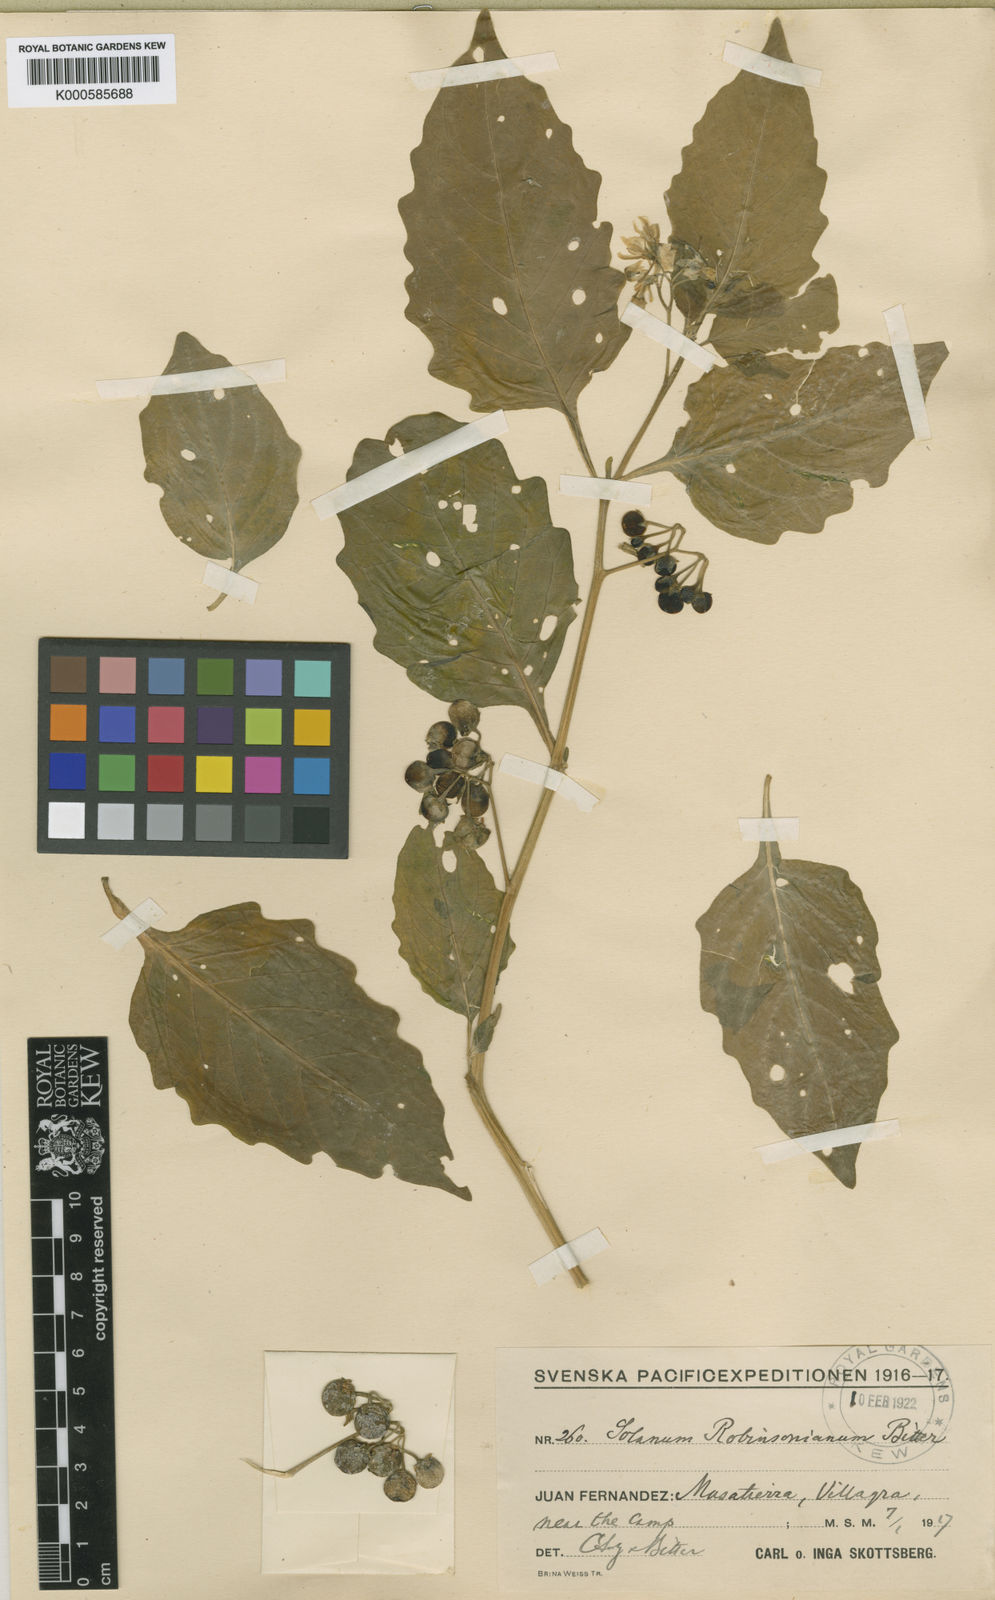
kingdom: Plantae
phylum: Tracheophyta
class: Magnoliopsida
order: Solanales
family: Solanaceae
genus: Solanum
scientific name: Solanum furcatum
